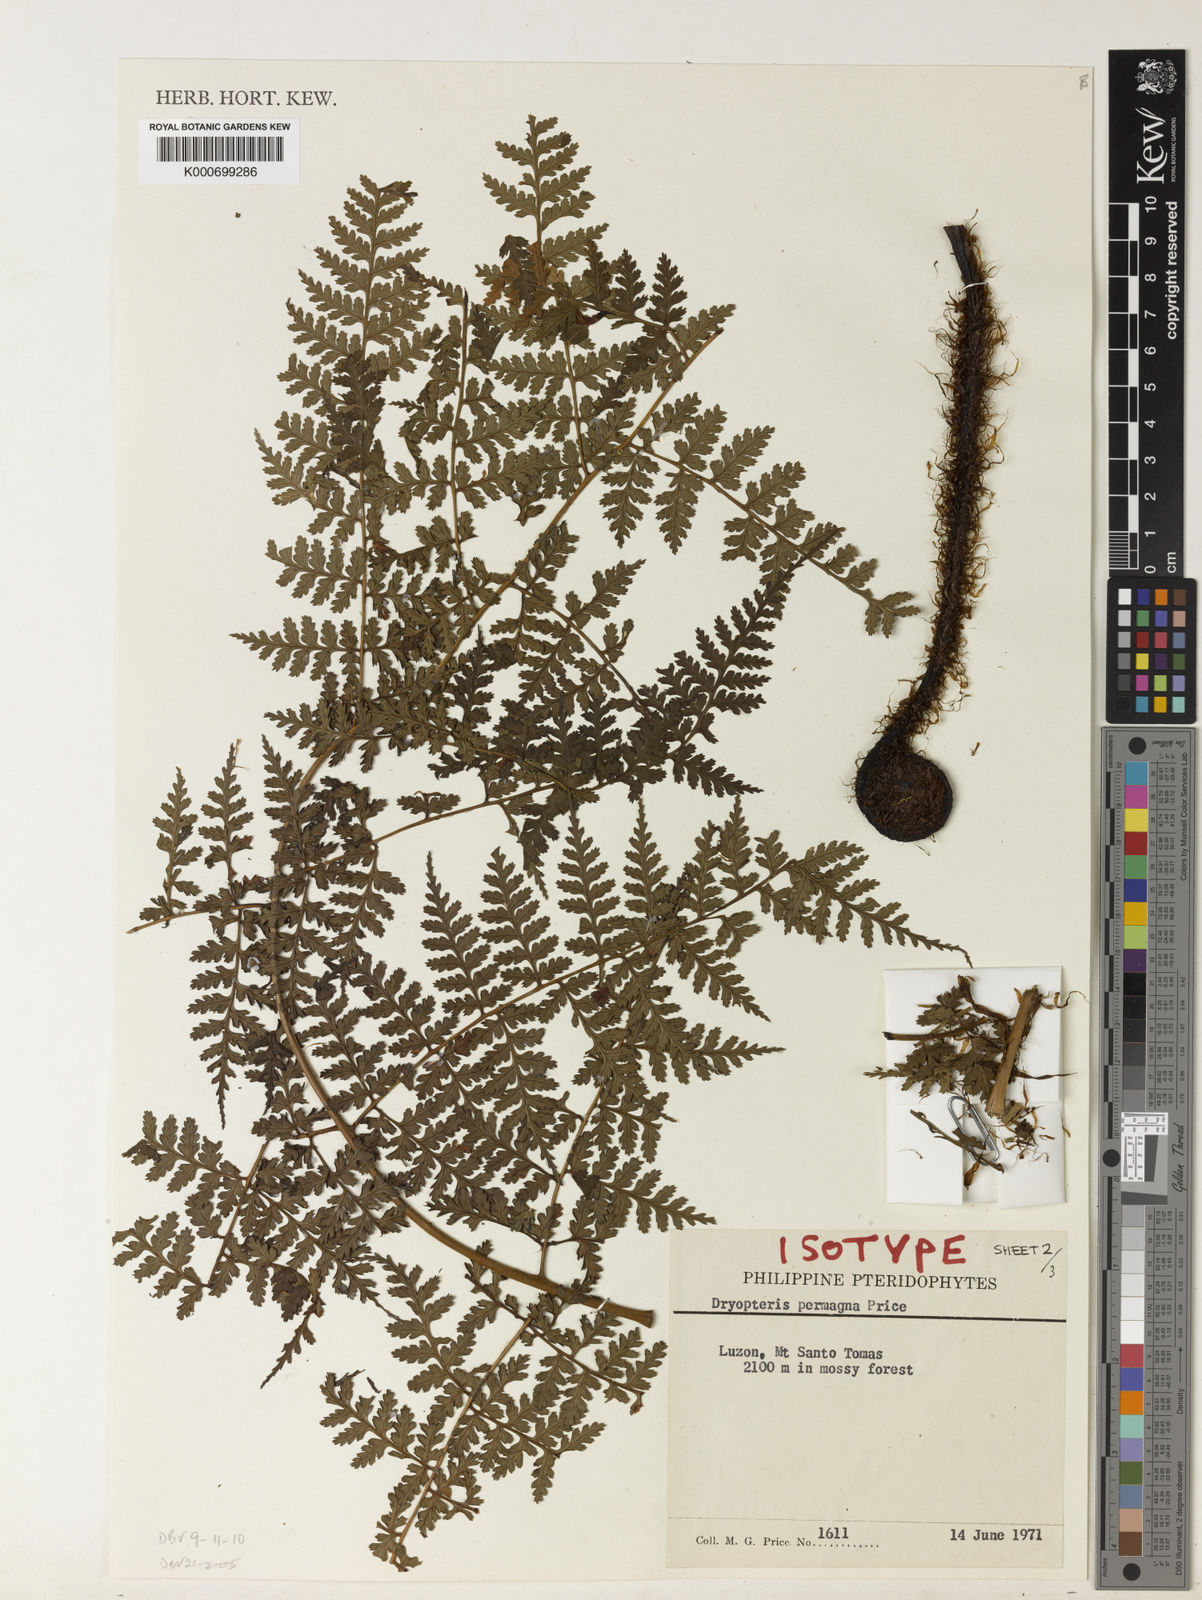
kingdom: Plantae
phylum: Tracheophyta
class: Polypodiopsida
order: Polypodiales
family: Dryopteridaceae
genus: Dryopteris
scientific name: Dryopteris permagna
